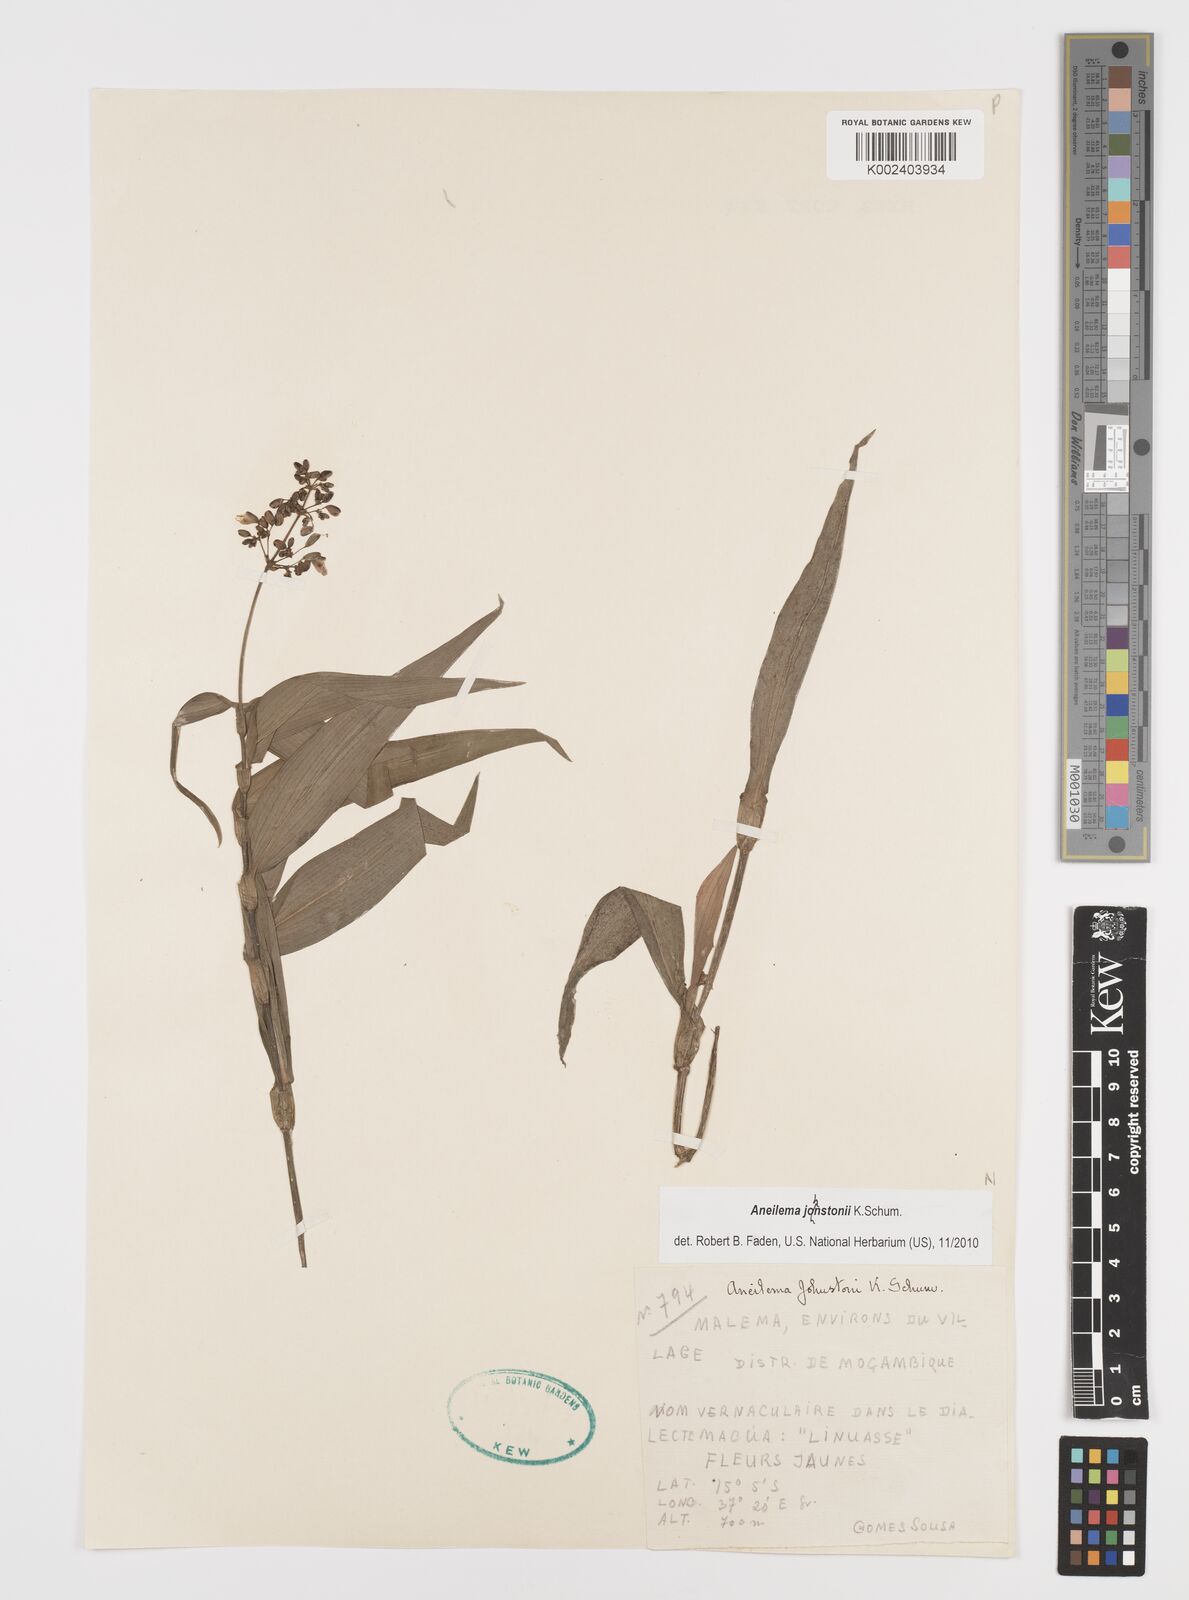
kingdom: Plantae
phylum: Tracheophyta
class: Liliopsida
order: Commelinales
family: Commelinaceae
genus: Aneilema
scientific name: Aneilema johnstonii
